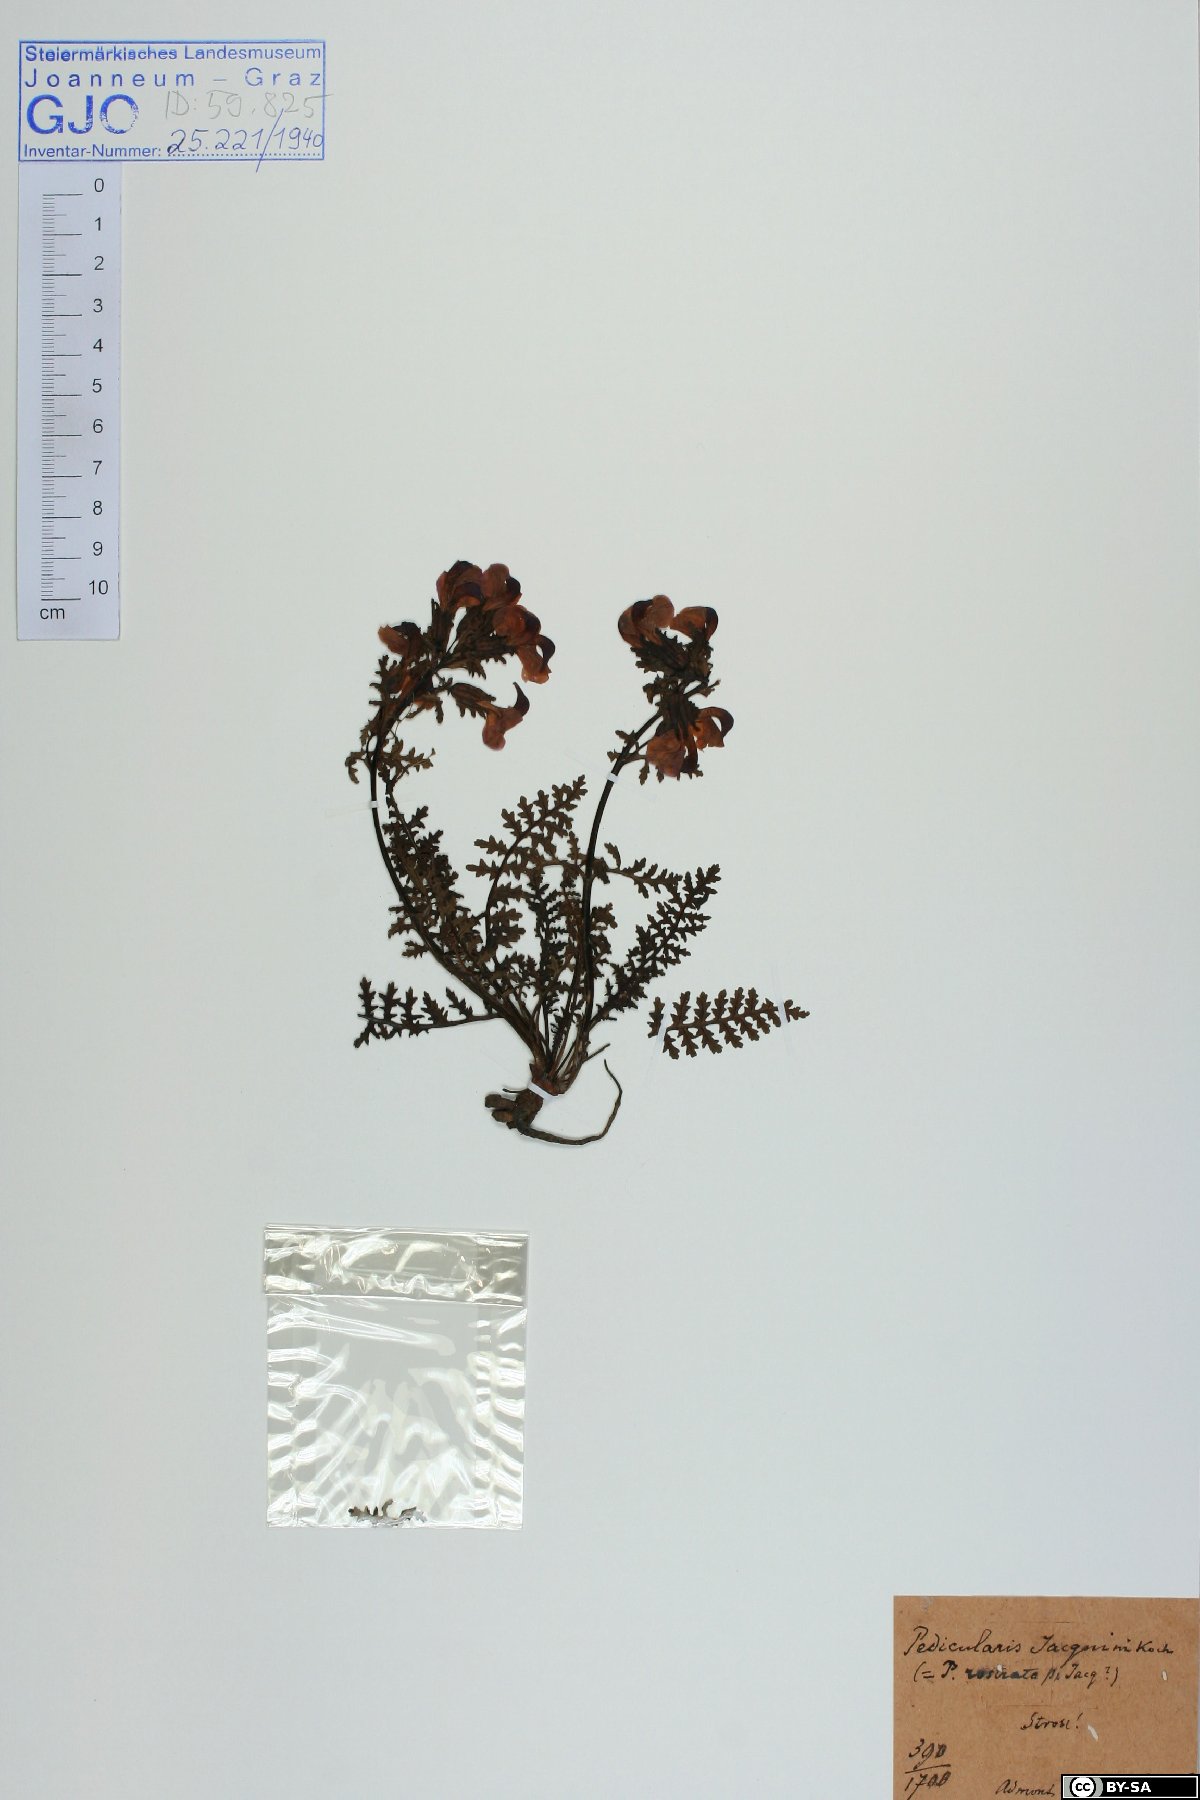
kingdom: Plantae
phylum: Tracheophyta
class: Magnoliopsida
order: Lamiales
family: Orobanchaceae
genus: Pedicularis
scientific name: Pedicularis rostratocapitata
